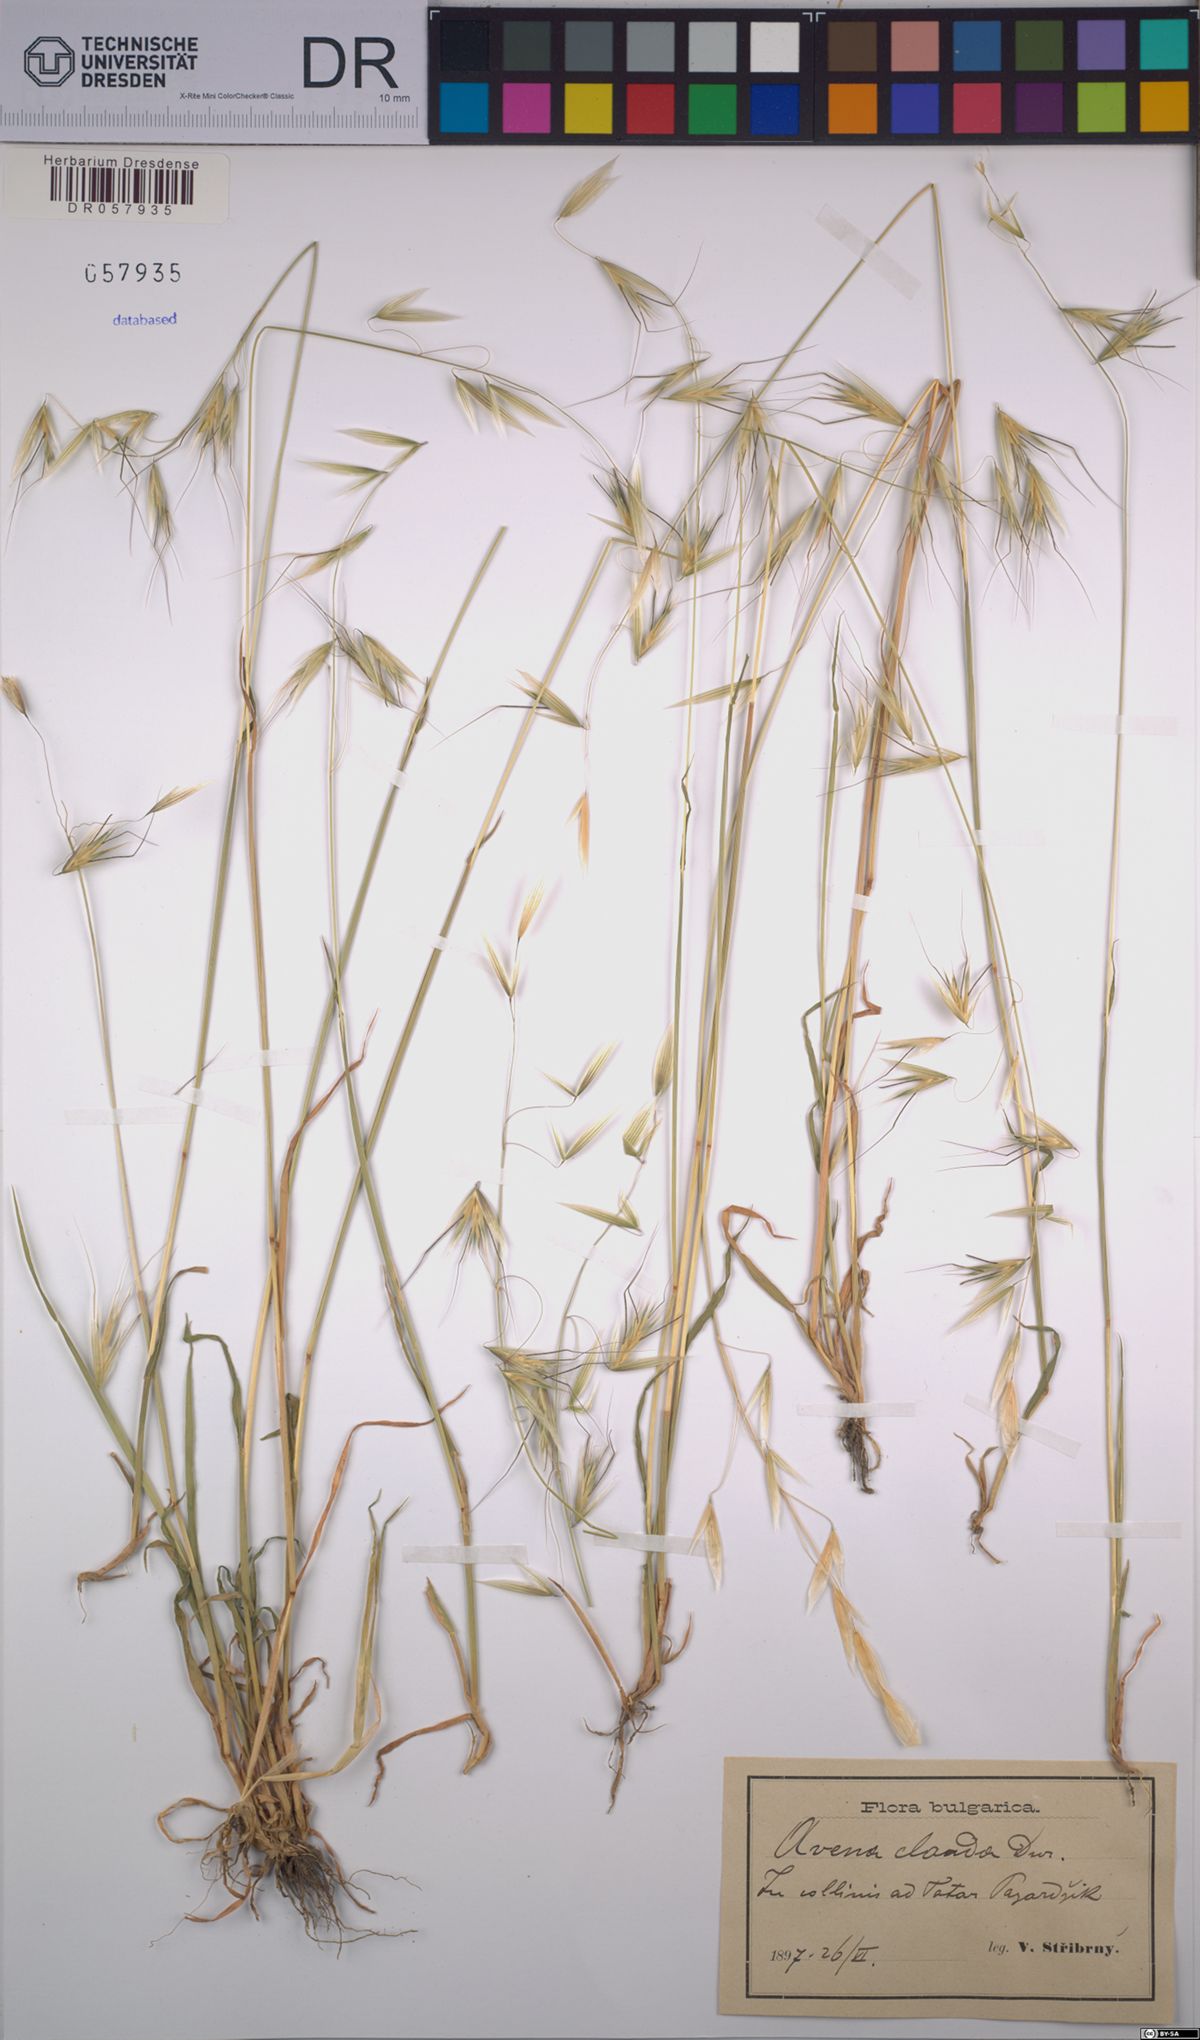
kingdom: Plantae
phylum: Tracheophyta
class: Liliopsida
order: Poales
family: Poaceae
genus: Avena
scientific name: Avena clauda
